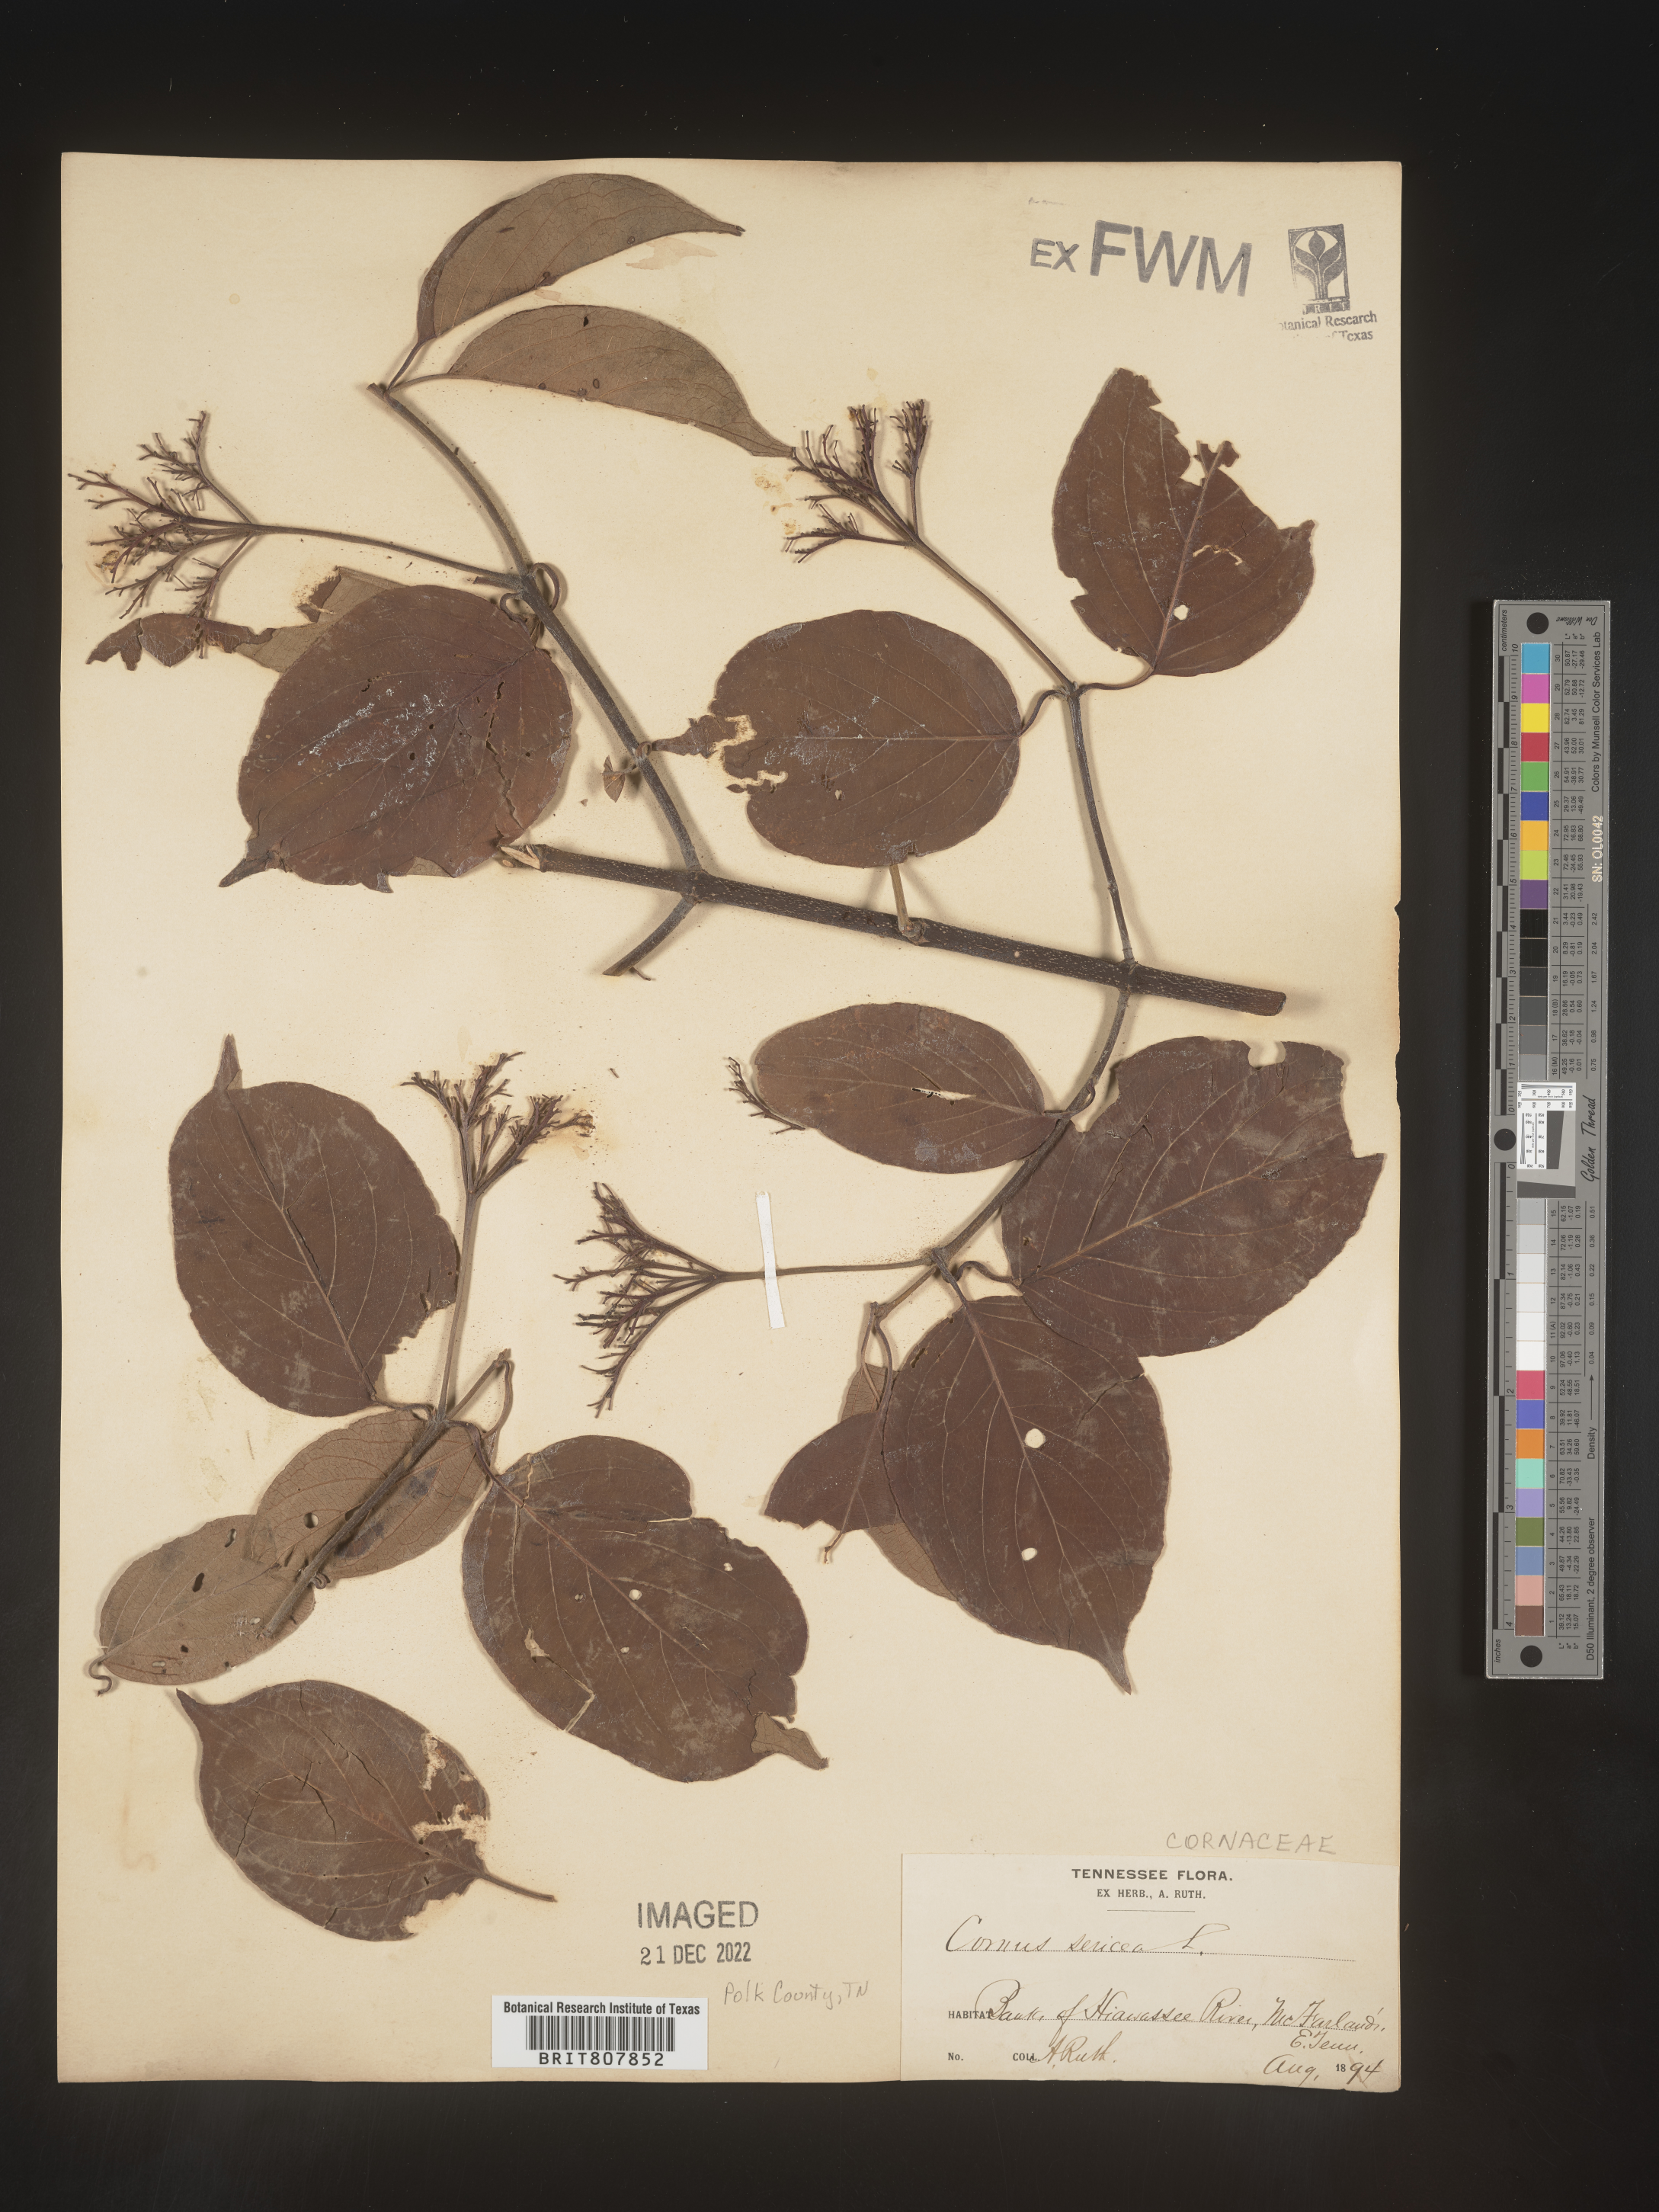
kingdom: Plantae
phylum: Tracheophyta
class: Magnoliopsida
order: Cornales
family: Cornaceae
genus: Cornus
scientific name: Cornus
